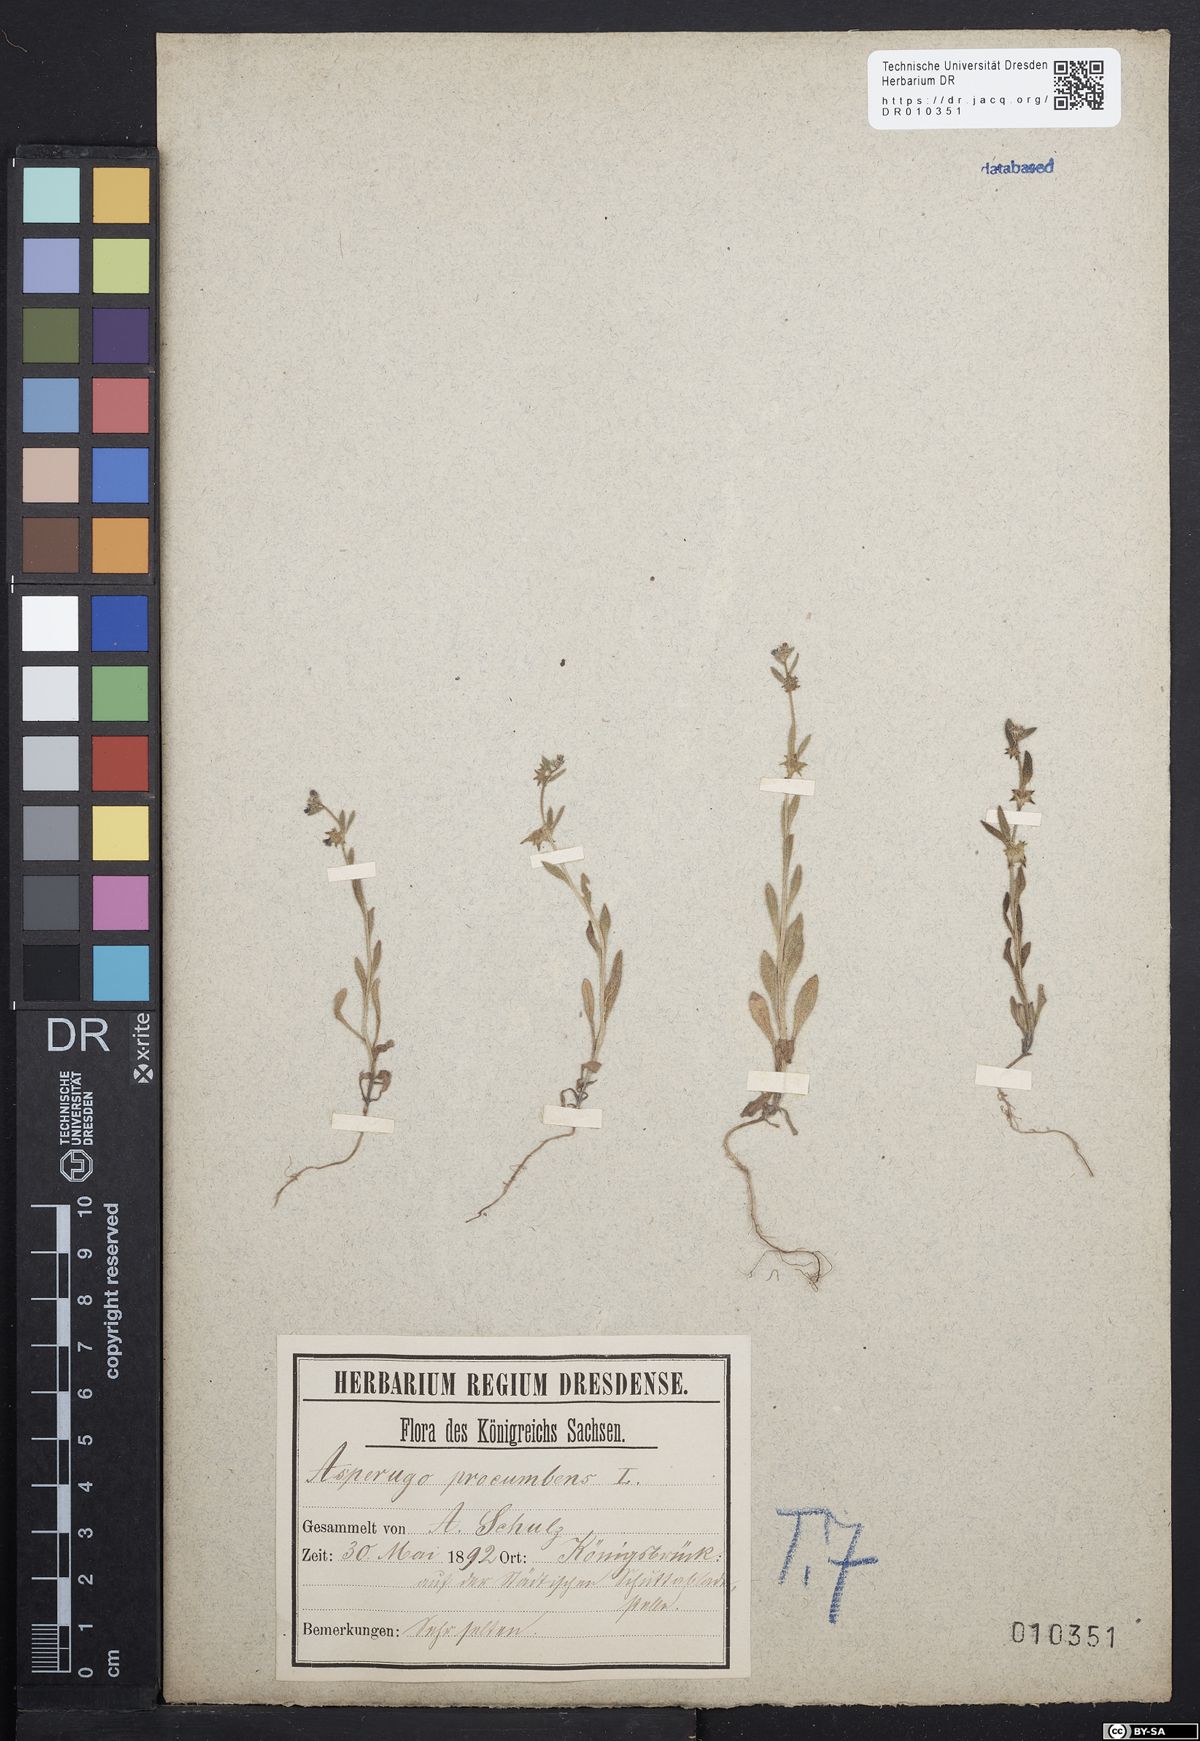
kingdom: Plantae
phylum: Tracheophyta
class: Magnoliopsida
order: Boraginales
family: Boraginaceae
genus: Asperugo
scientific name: Asperugo procumbens
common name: Madwort
